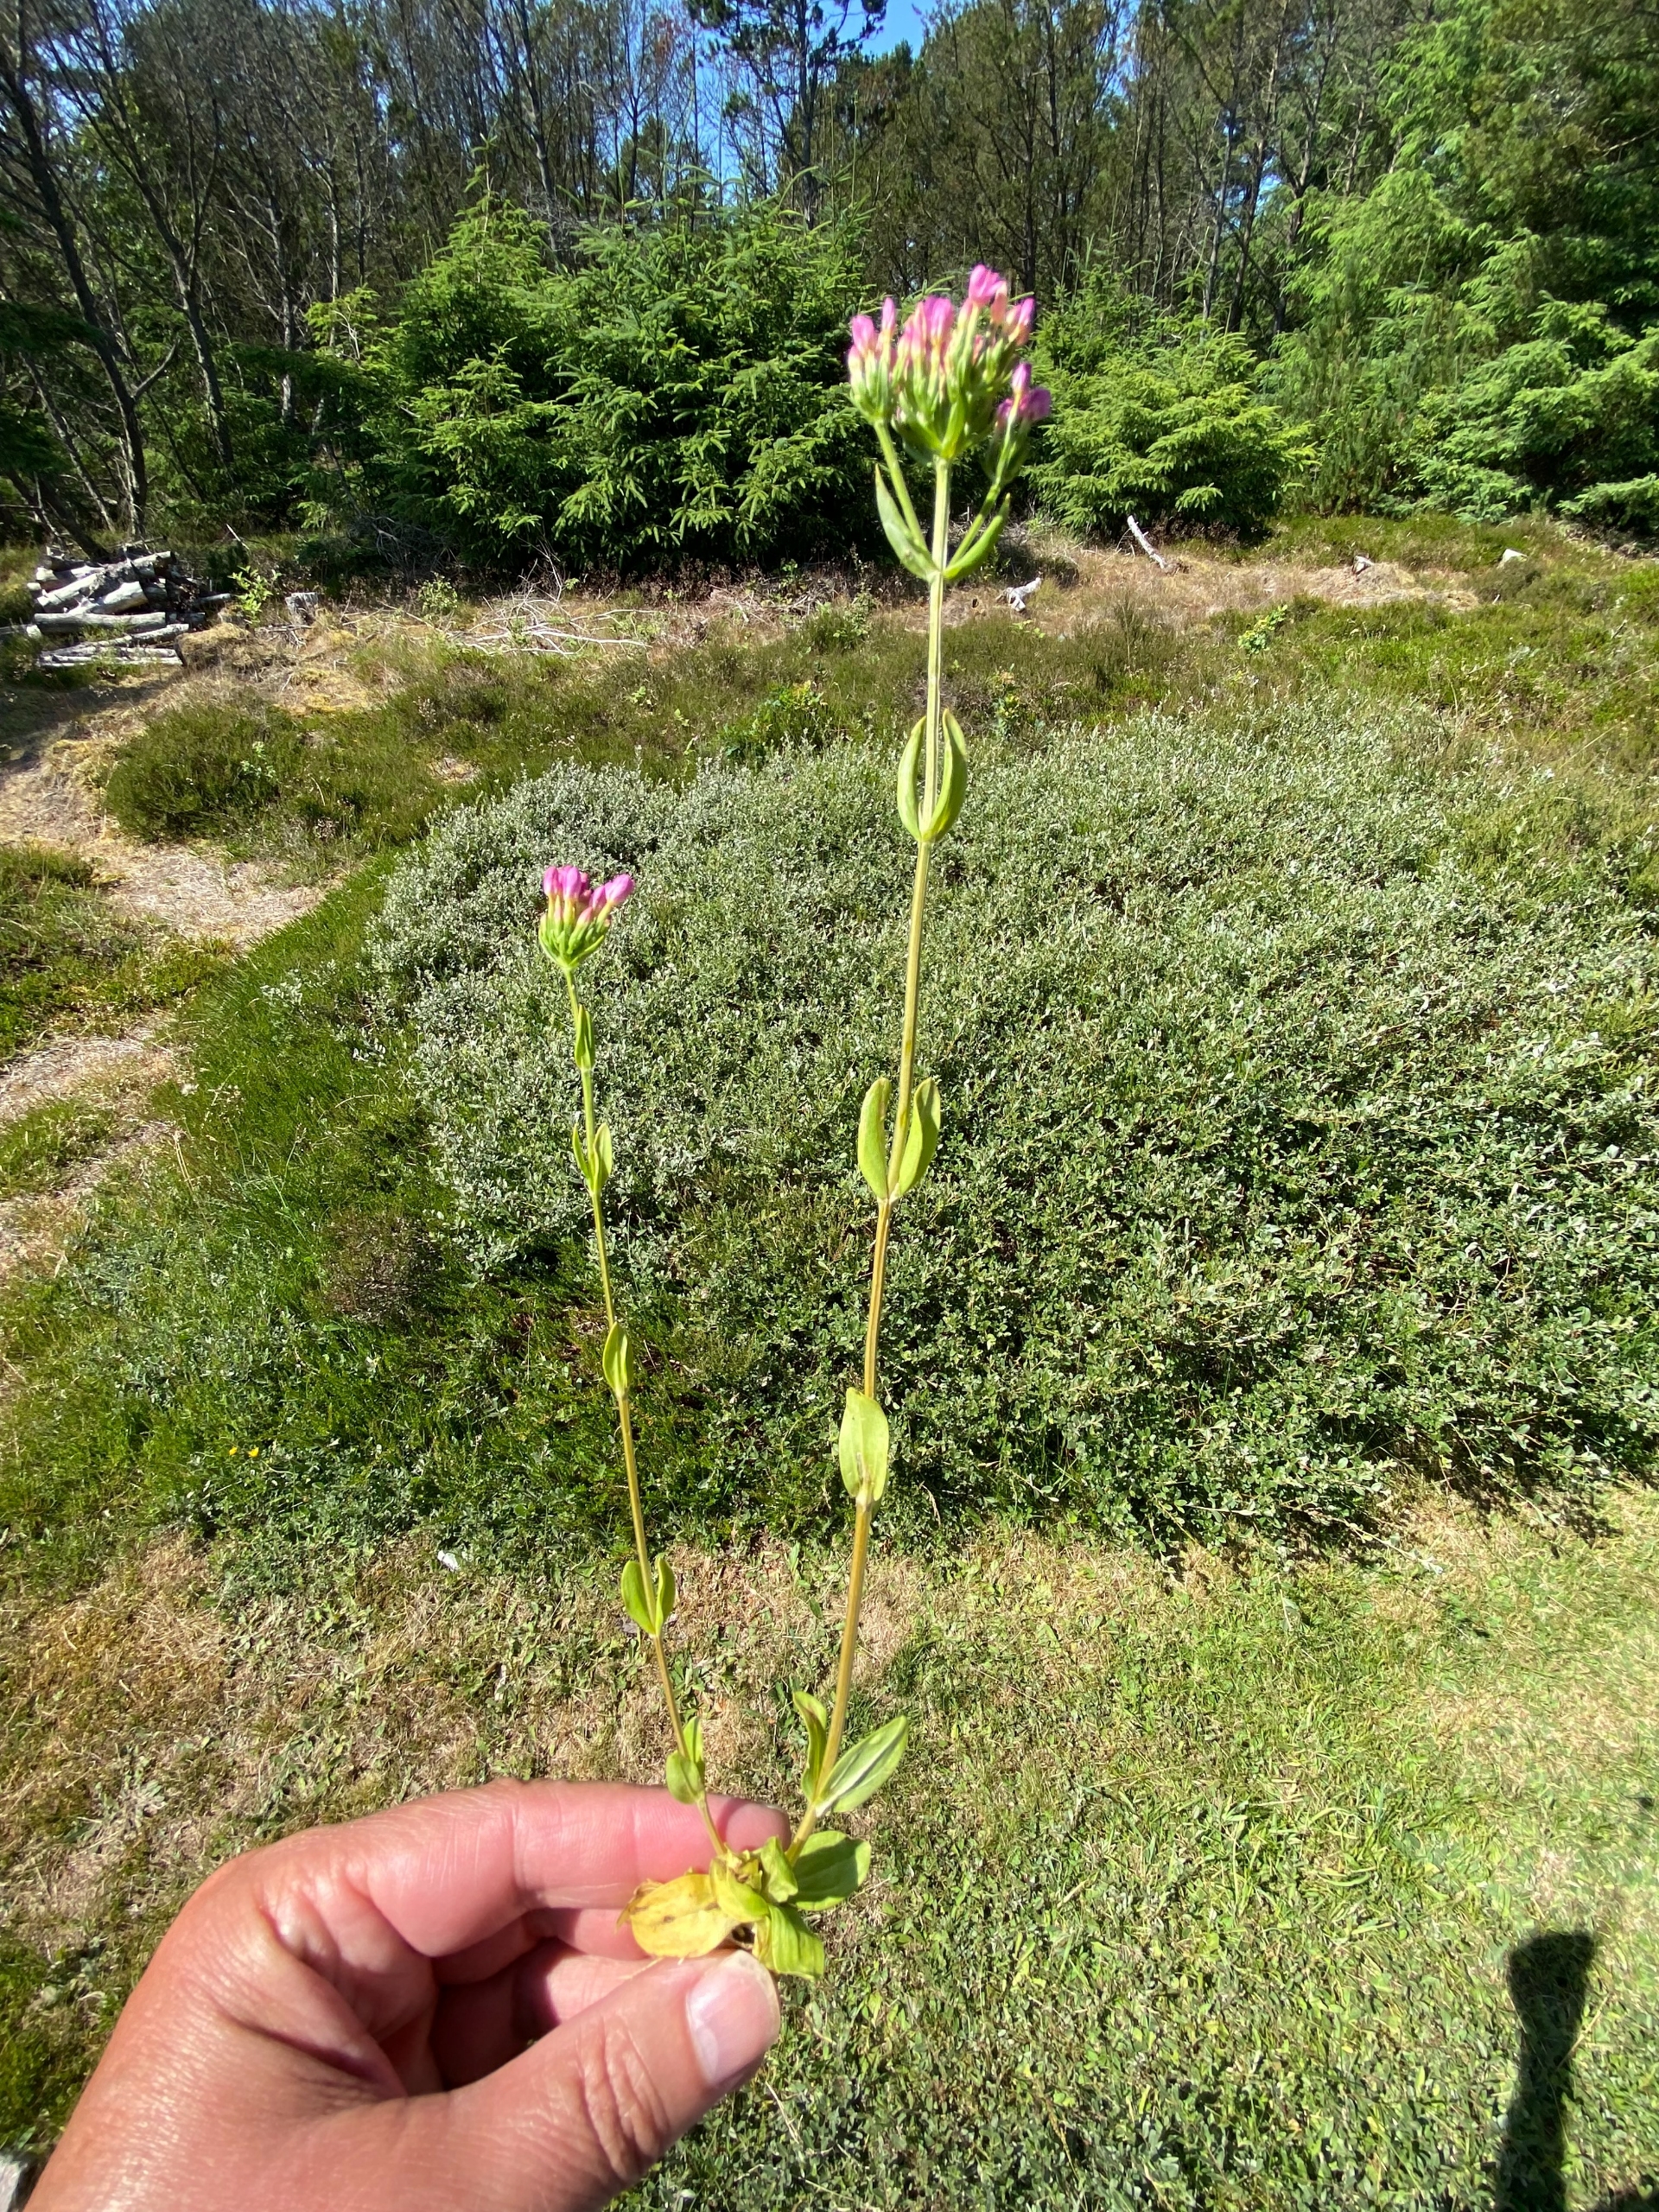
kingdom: Plantae
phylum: Tracheophyta
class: Magnoliopsida
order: Gentianales
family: Gentianaceae
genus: Centaurium
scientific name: Centaurium erythraea
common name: Mark-tusindgylden
